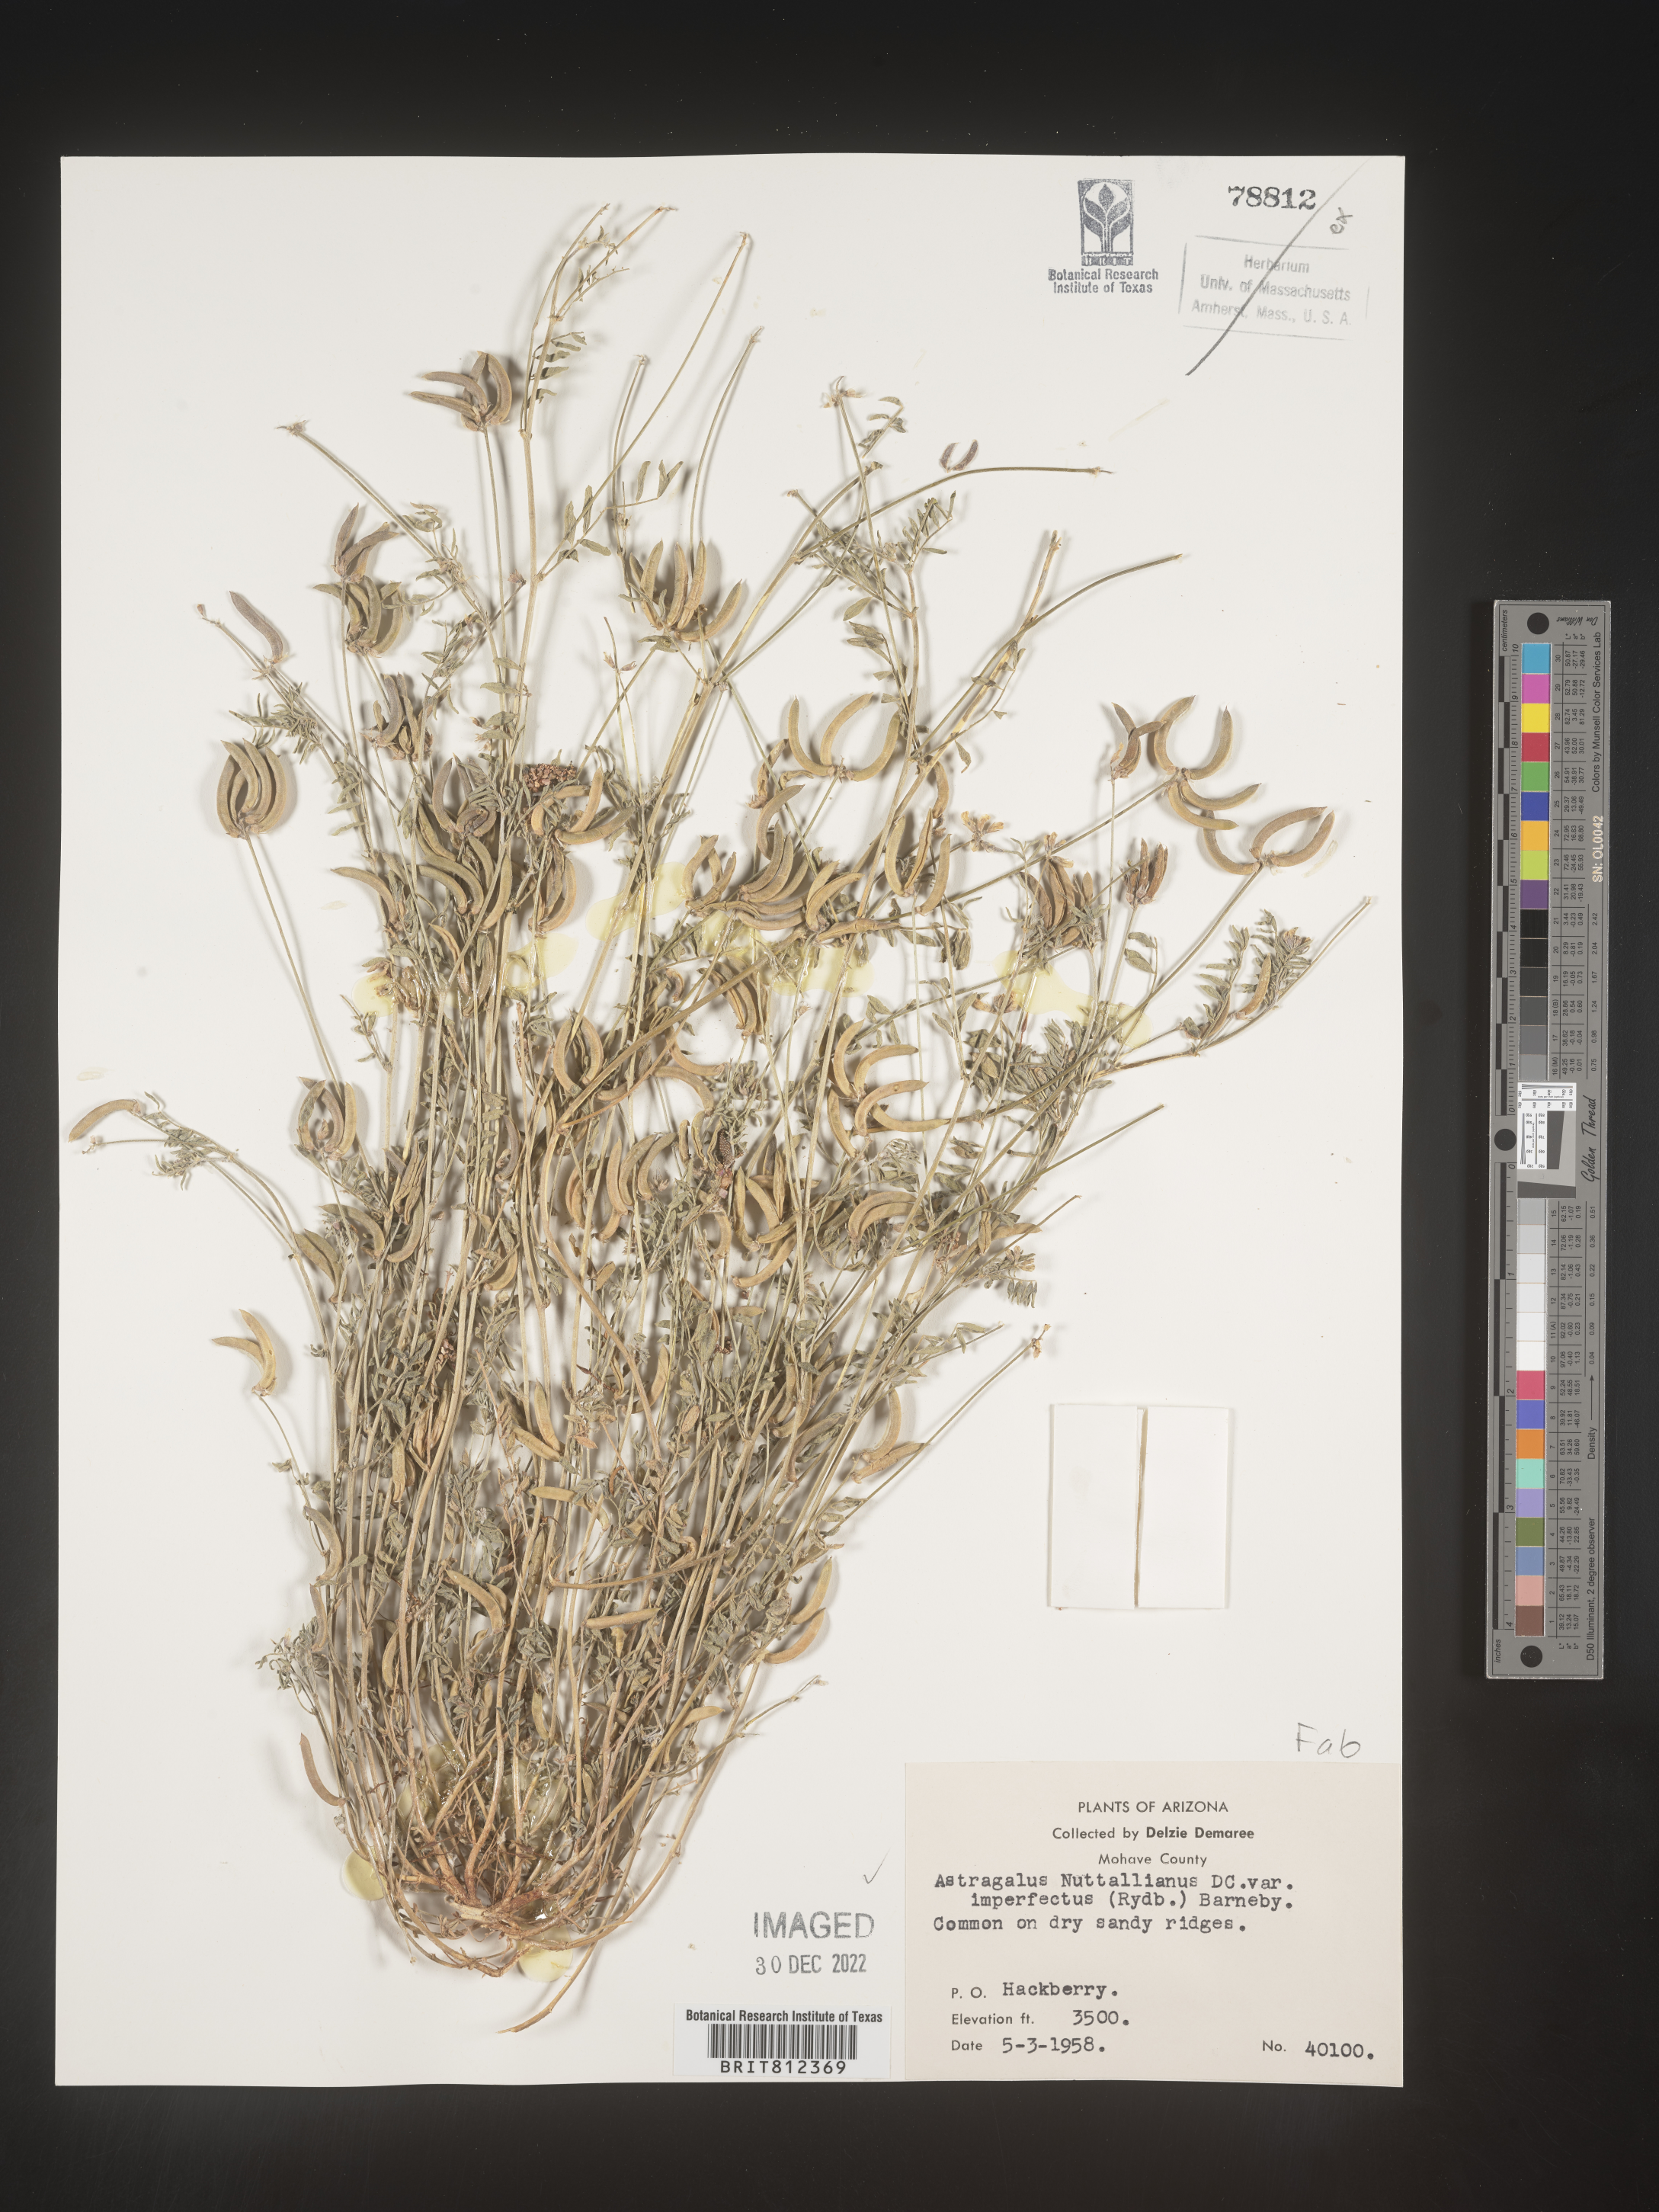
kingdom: Plantae
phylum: Tracheophyta
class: Magnoliopsida
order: Fabales
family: Fabaceae
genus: Astragalus
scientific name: Astragalus nuttallianus
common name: Smallflowered milkvetch
